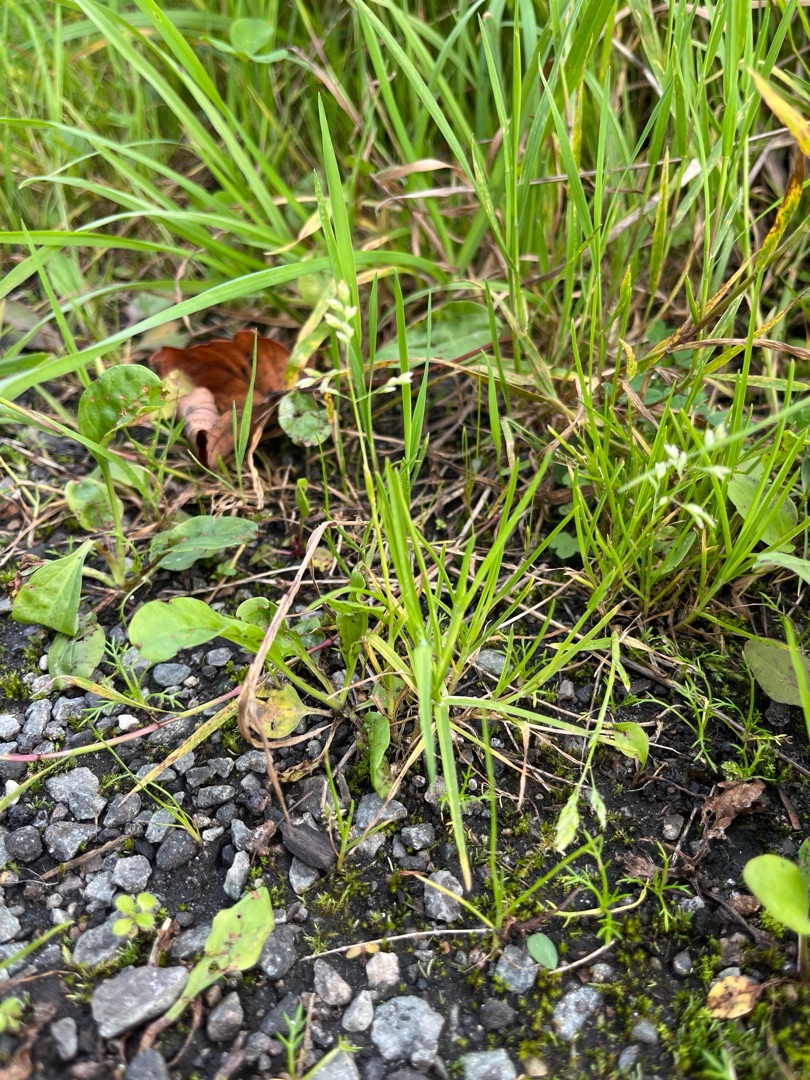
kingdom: Plantae
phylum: Tracheophyta
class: Liliopsida
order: Poales
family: Poaceae
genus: Poa
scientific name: Poa annua
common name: Enårig rapgræs
